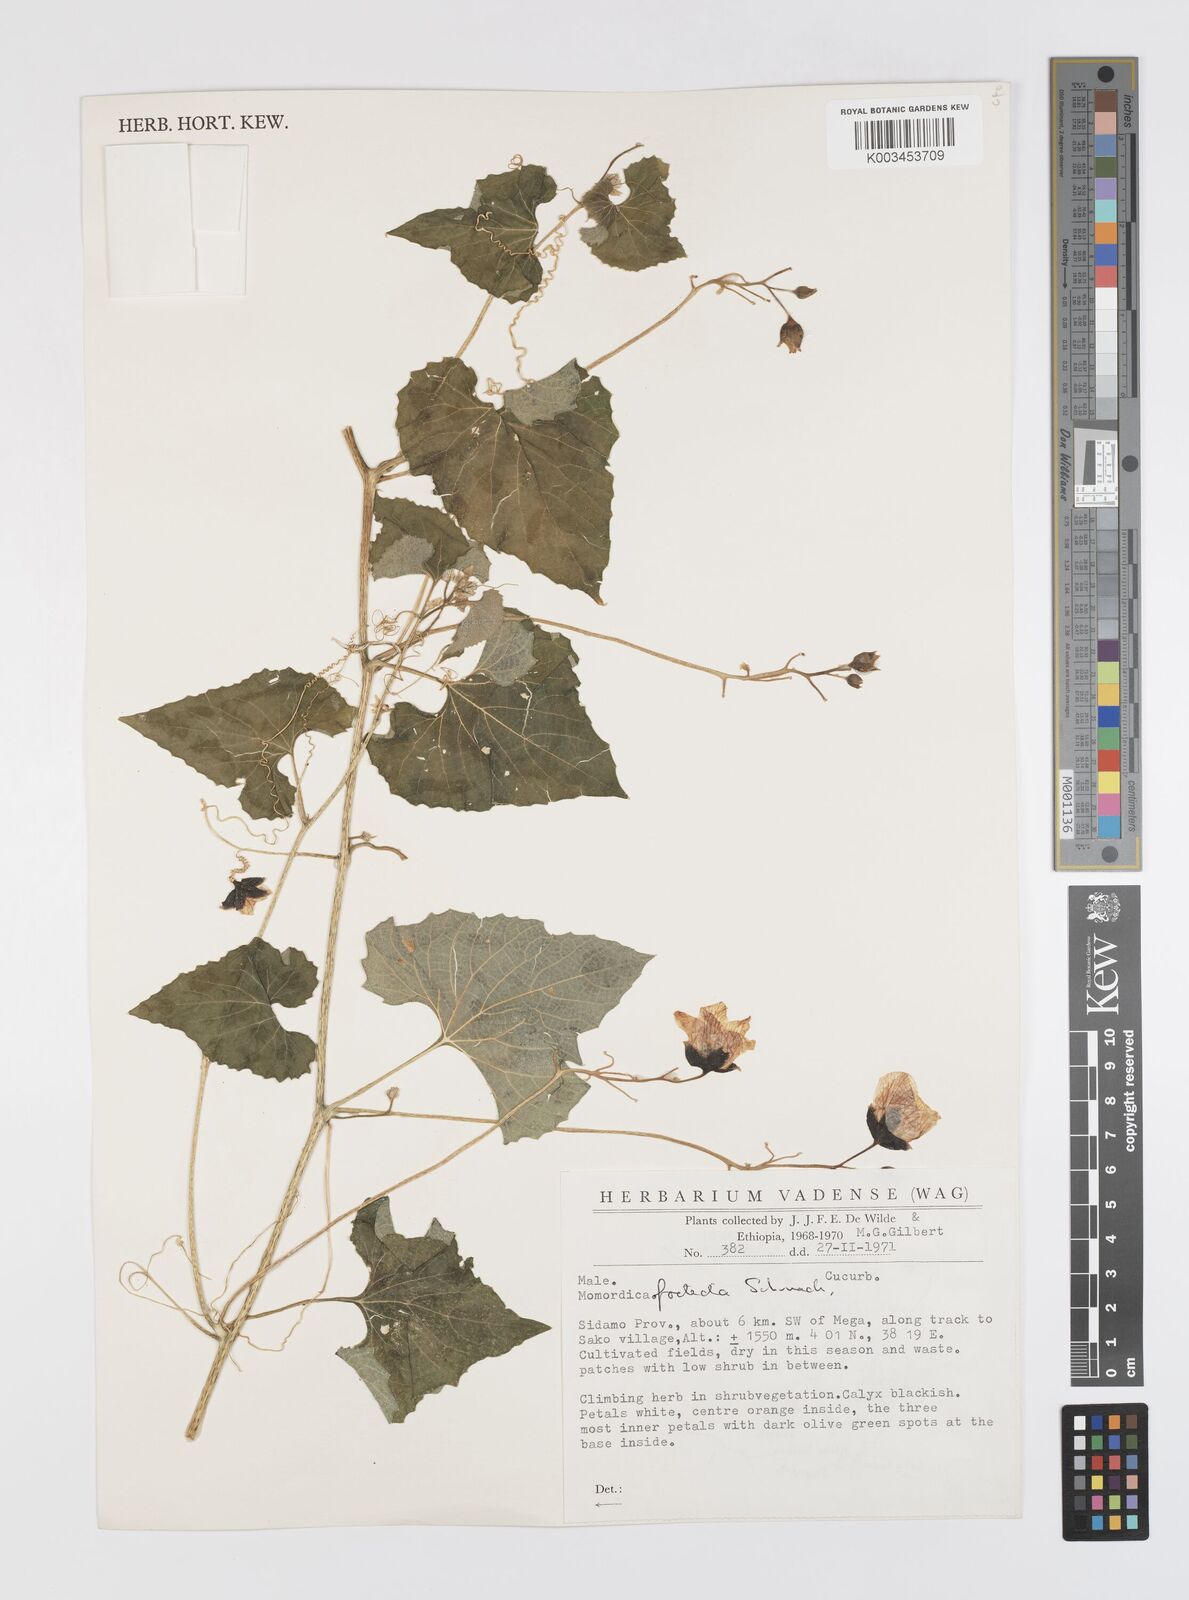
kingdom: Plantae
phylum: Tracheophyta
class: Magnoliopsida
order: Cucurbitales
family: Cucurbitaceae
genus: Momordica
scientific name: Momordica foetida
